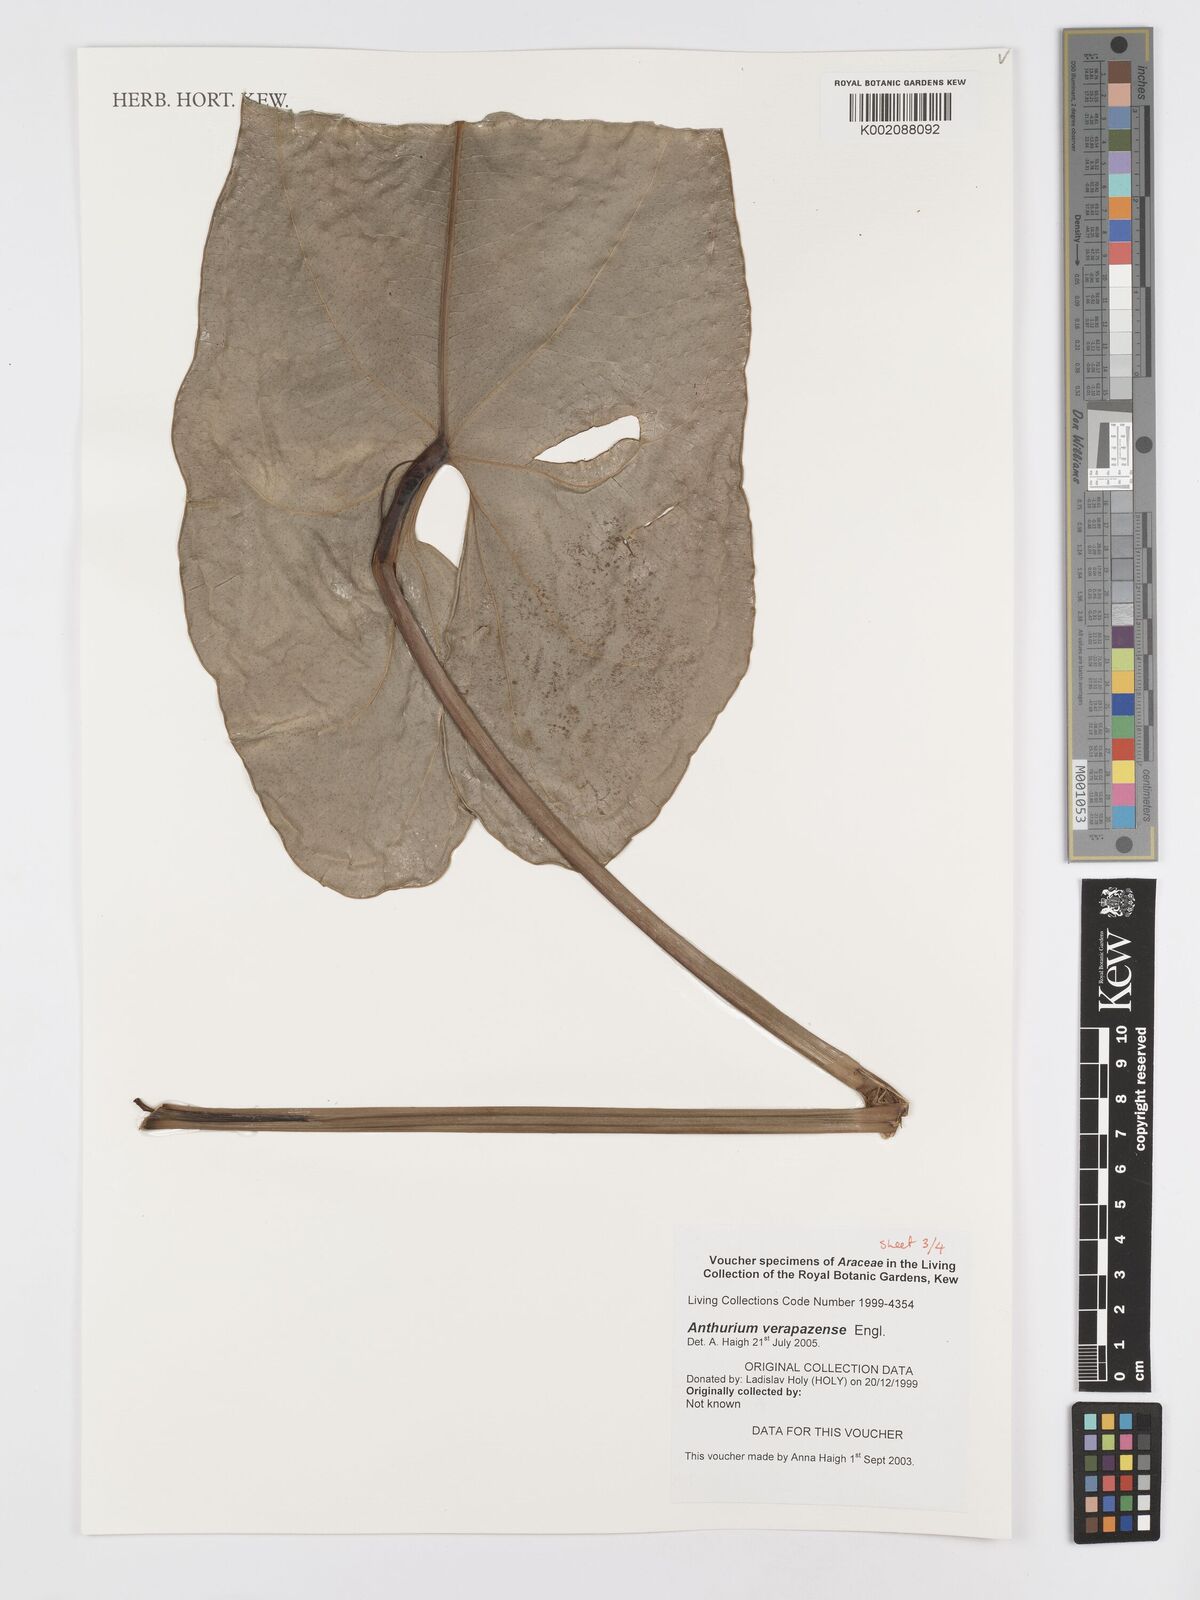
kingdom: Plantae
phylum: Tracheophyta
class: Liliopsida
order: Alismatales
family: Araceae
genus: Anthurium
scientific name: Anthurium verapazense
